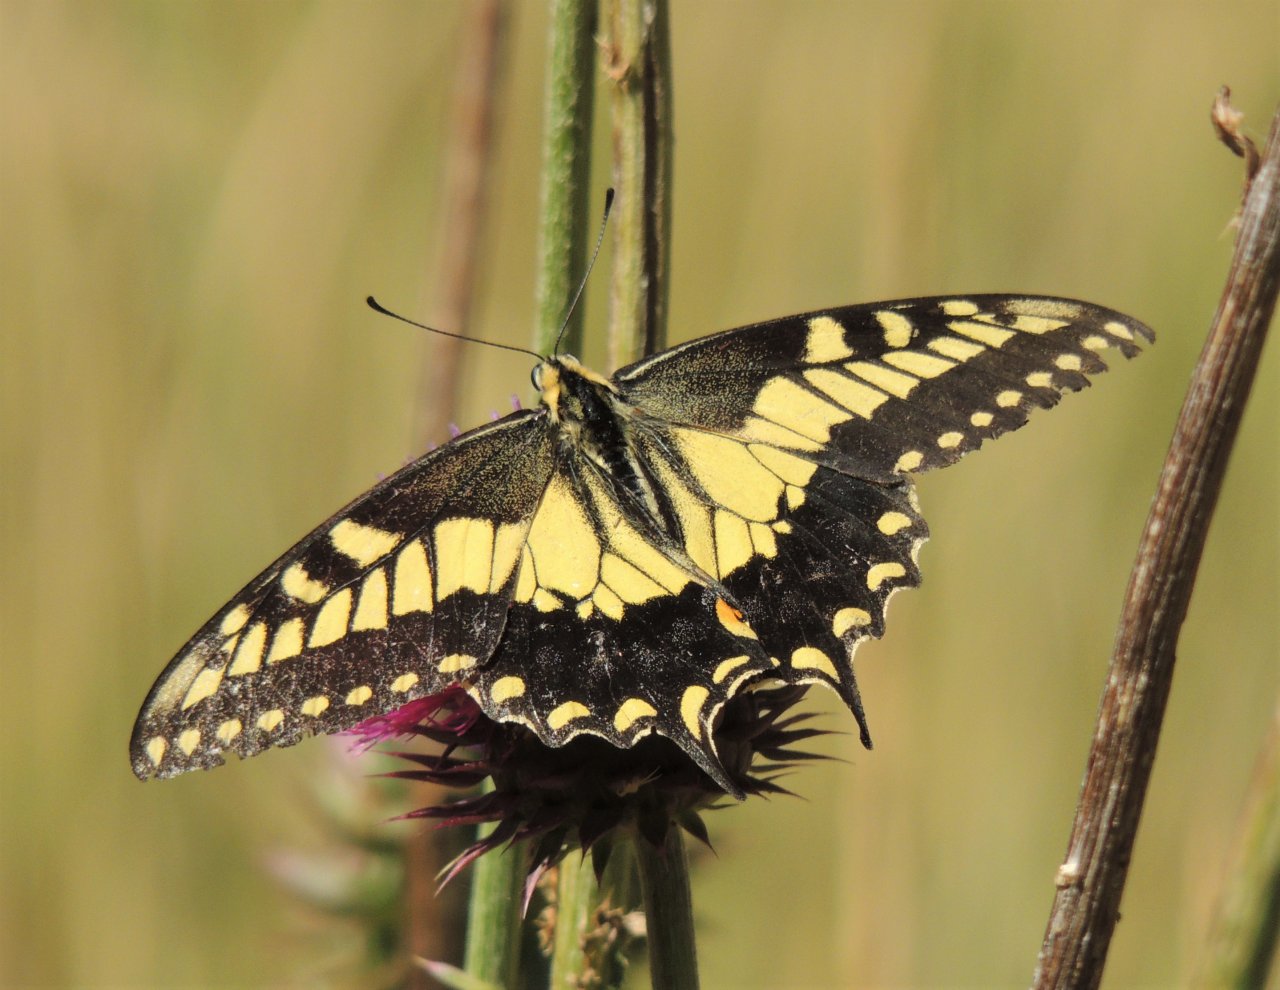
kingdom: Animalia
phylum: Arthropoda
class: Insecta
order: Lepidoptera
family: Papilionidae
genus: Papilio
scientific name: Papilio machaon
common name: Old World Swallowtail
